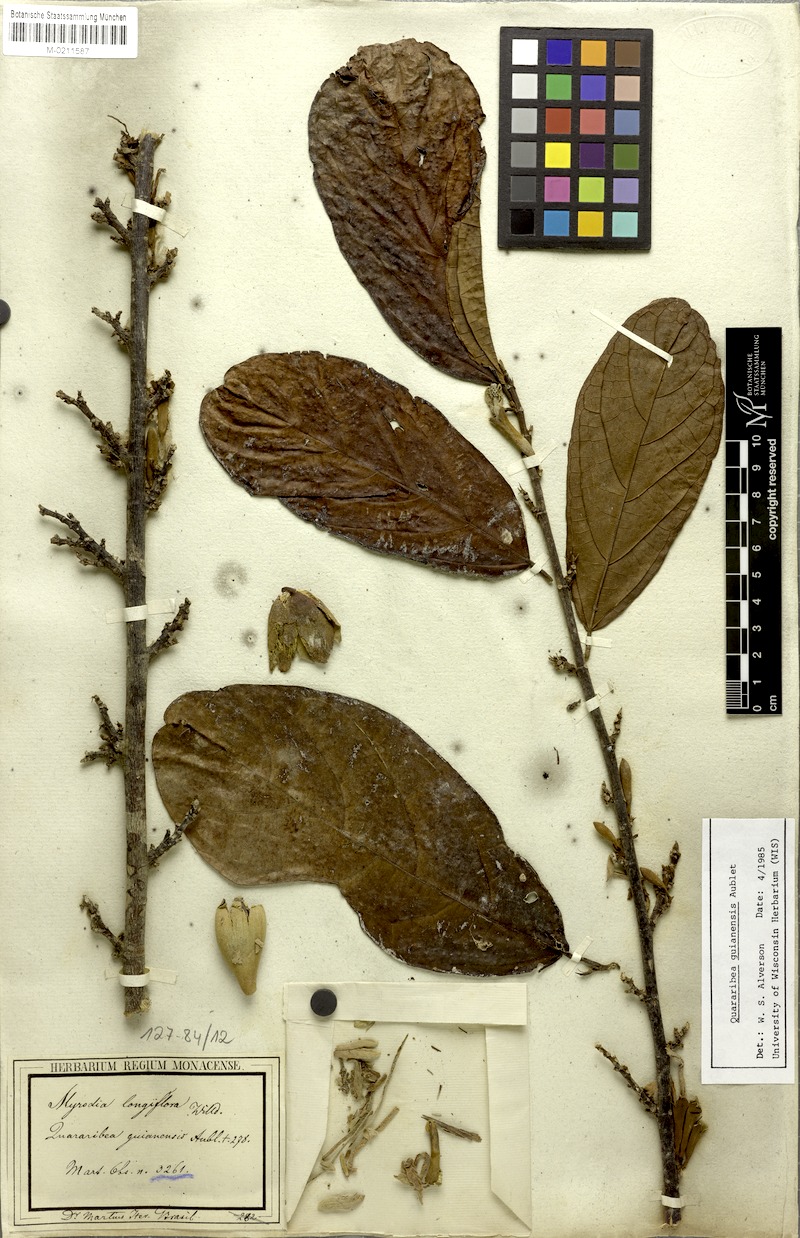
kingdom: Plantae
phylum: Tracheophyta
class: Magnoliopsida
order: Malvales
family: Malvaceae
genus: Quararibea
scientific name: Quararibea guianensis
